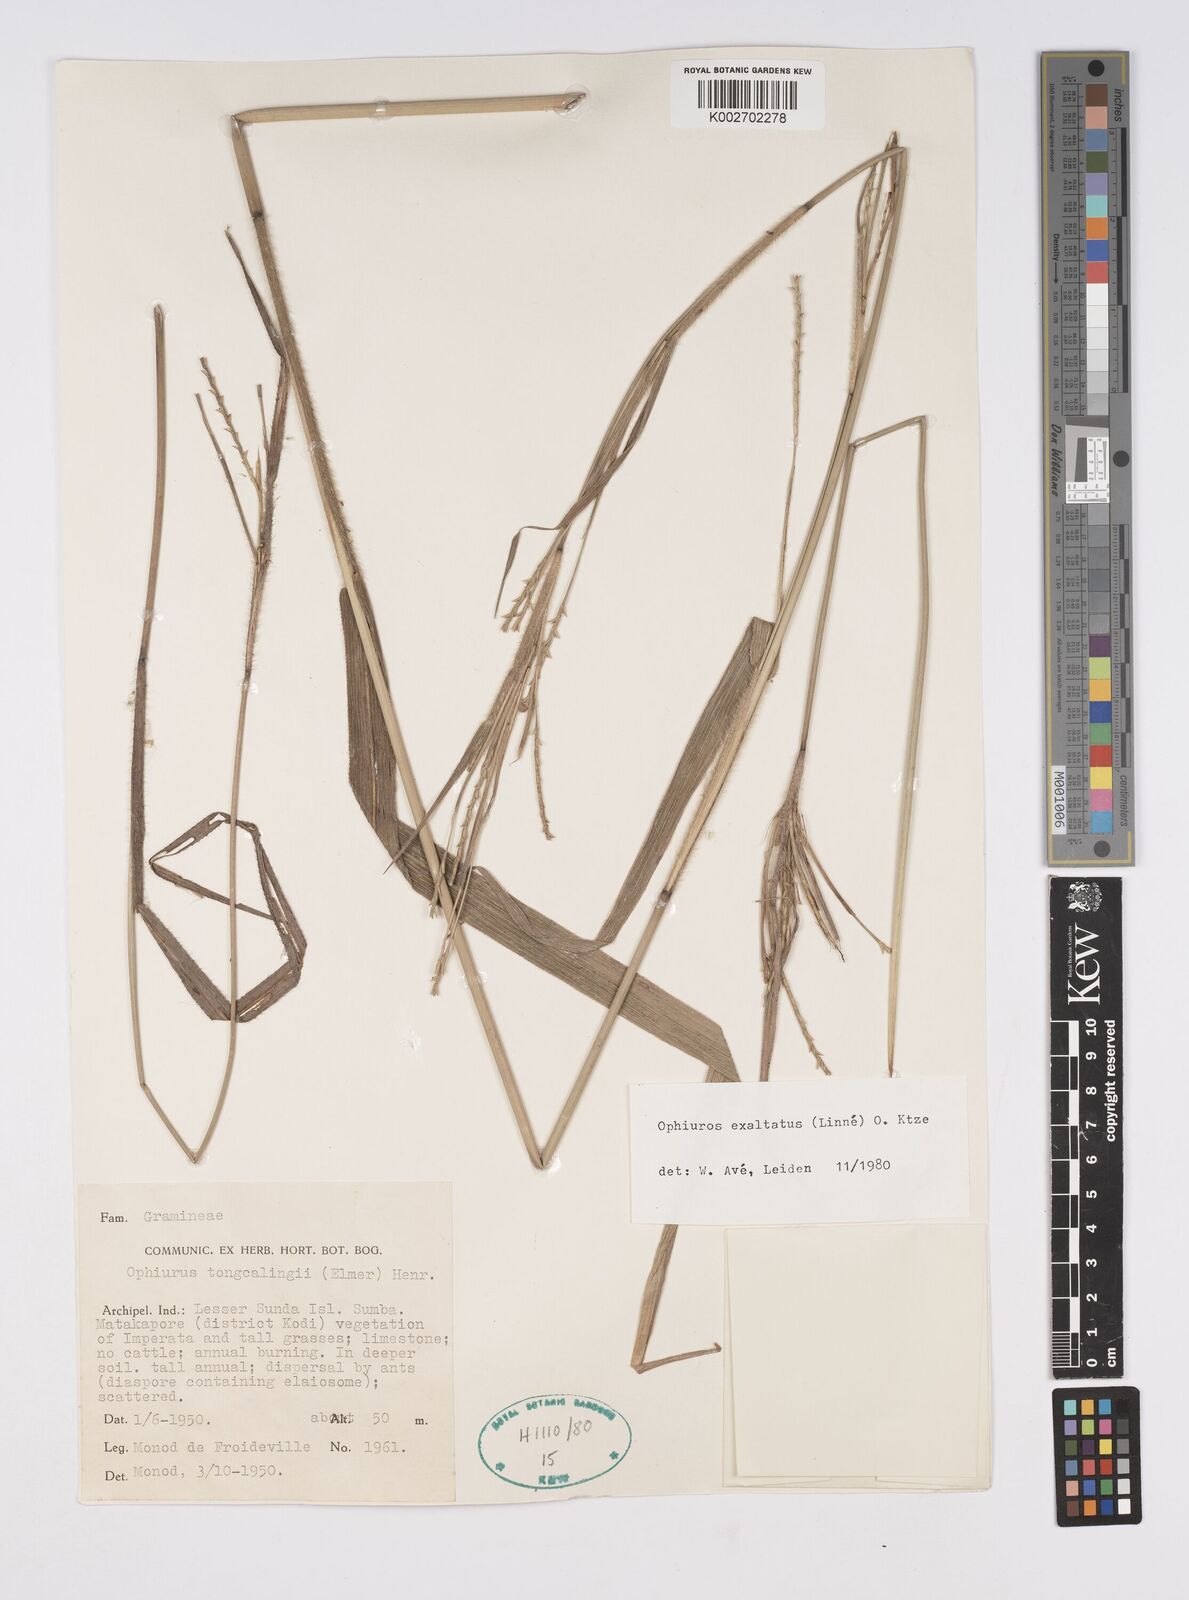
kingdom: Plantae
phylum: Tracheophyta
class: Liliopsida
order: Poales
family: Poaceae
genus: Ophiuros
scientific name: Ophiuros megaphyllus
